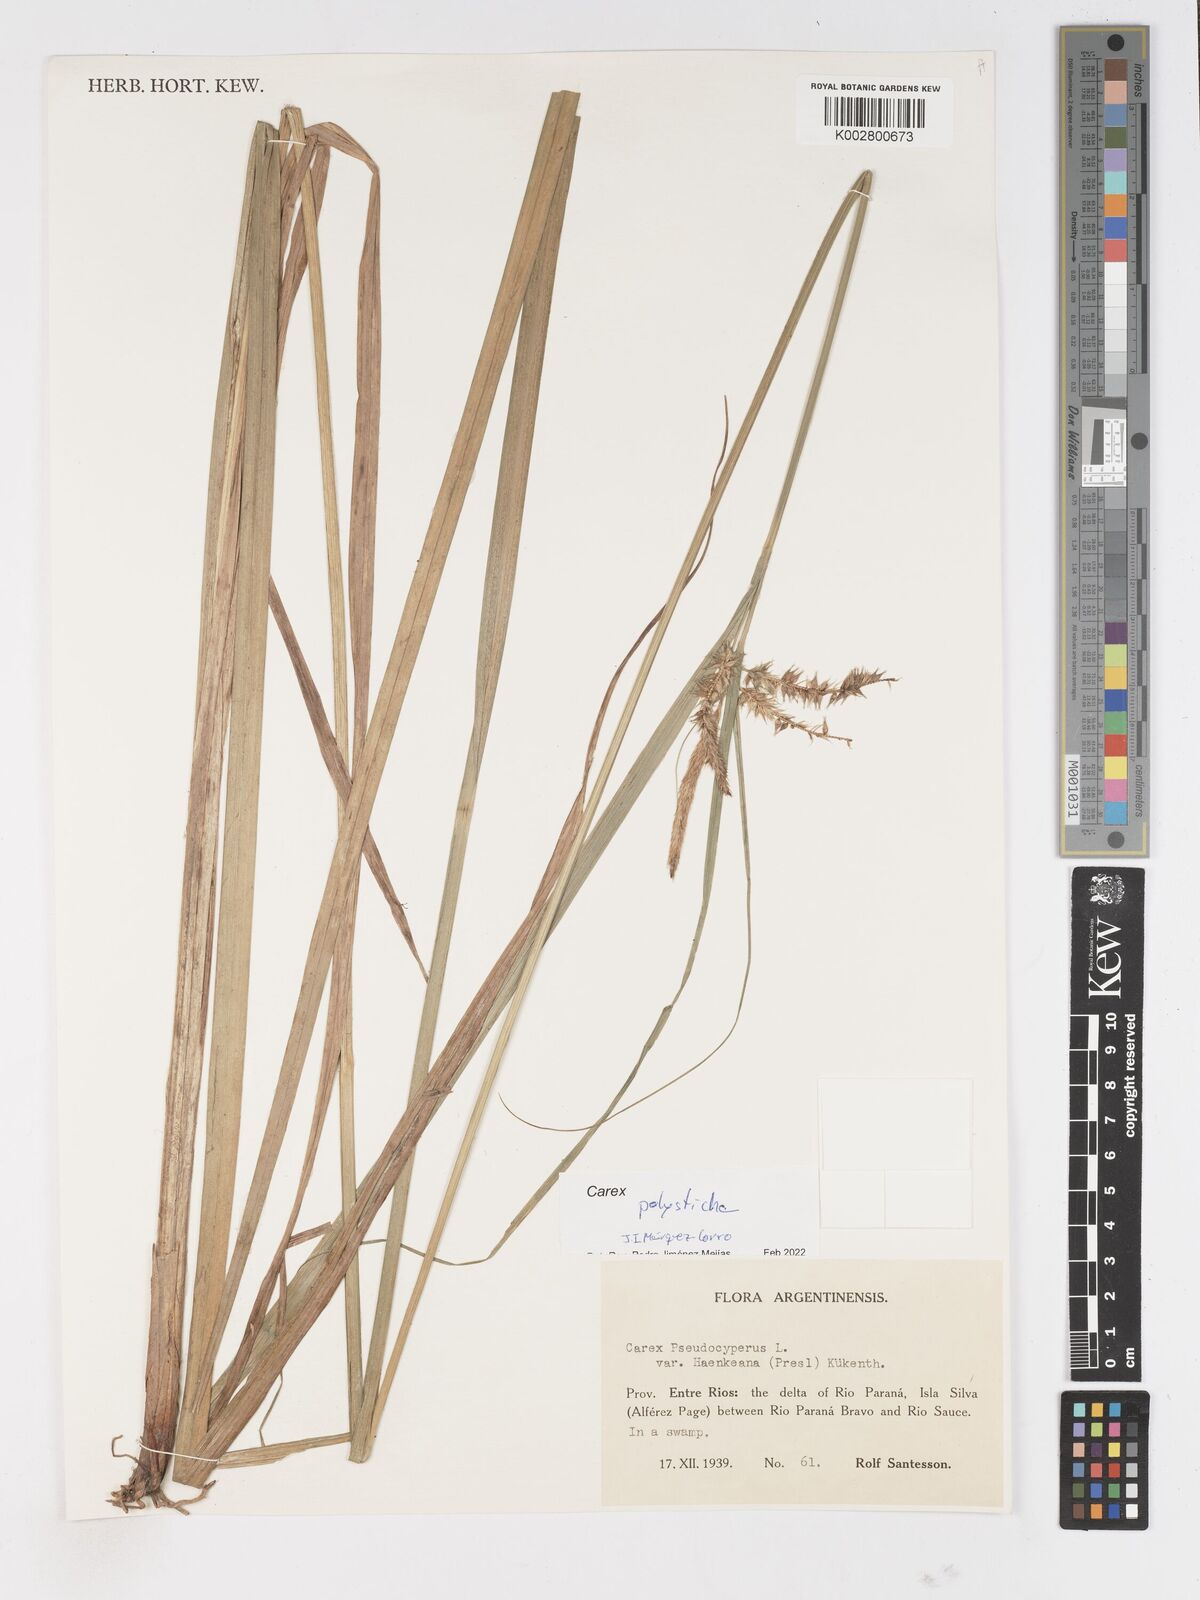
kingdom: Plantae
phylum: Tracheophyta
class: Liliopsida
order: Poales
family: Cyperaceae
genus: Carex
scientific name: Carex polysticha
